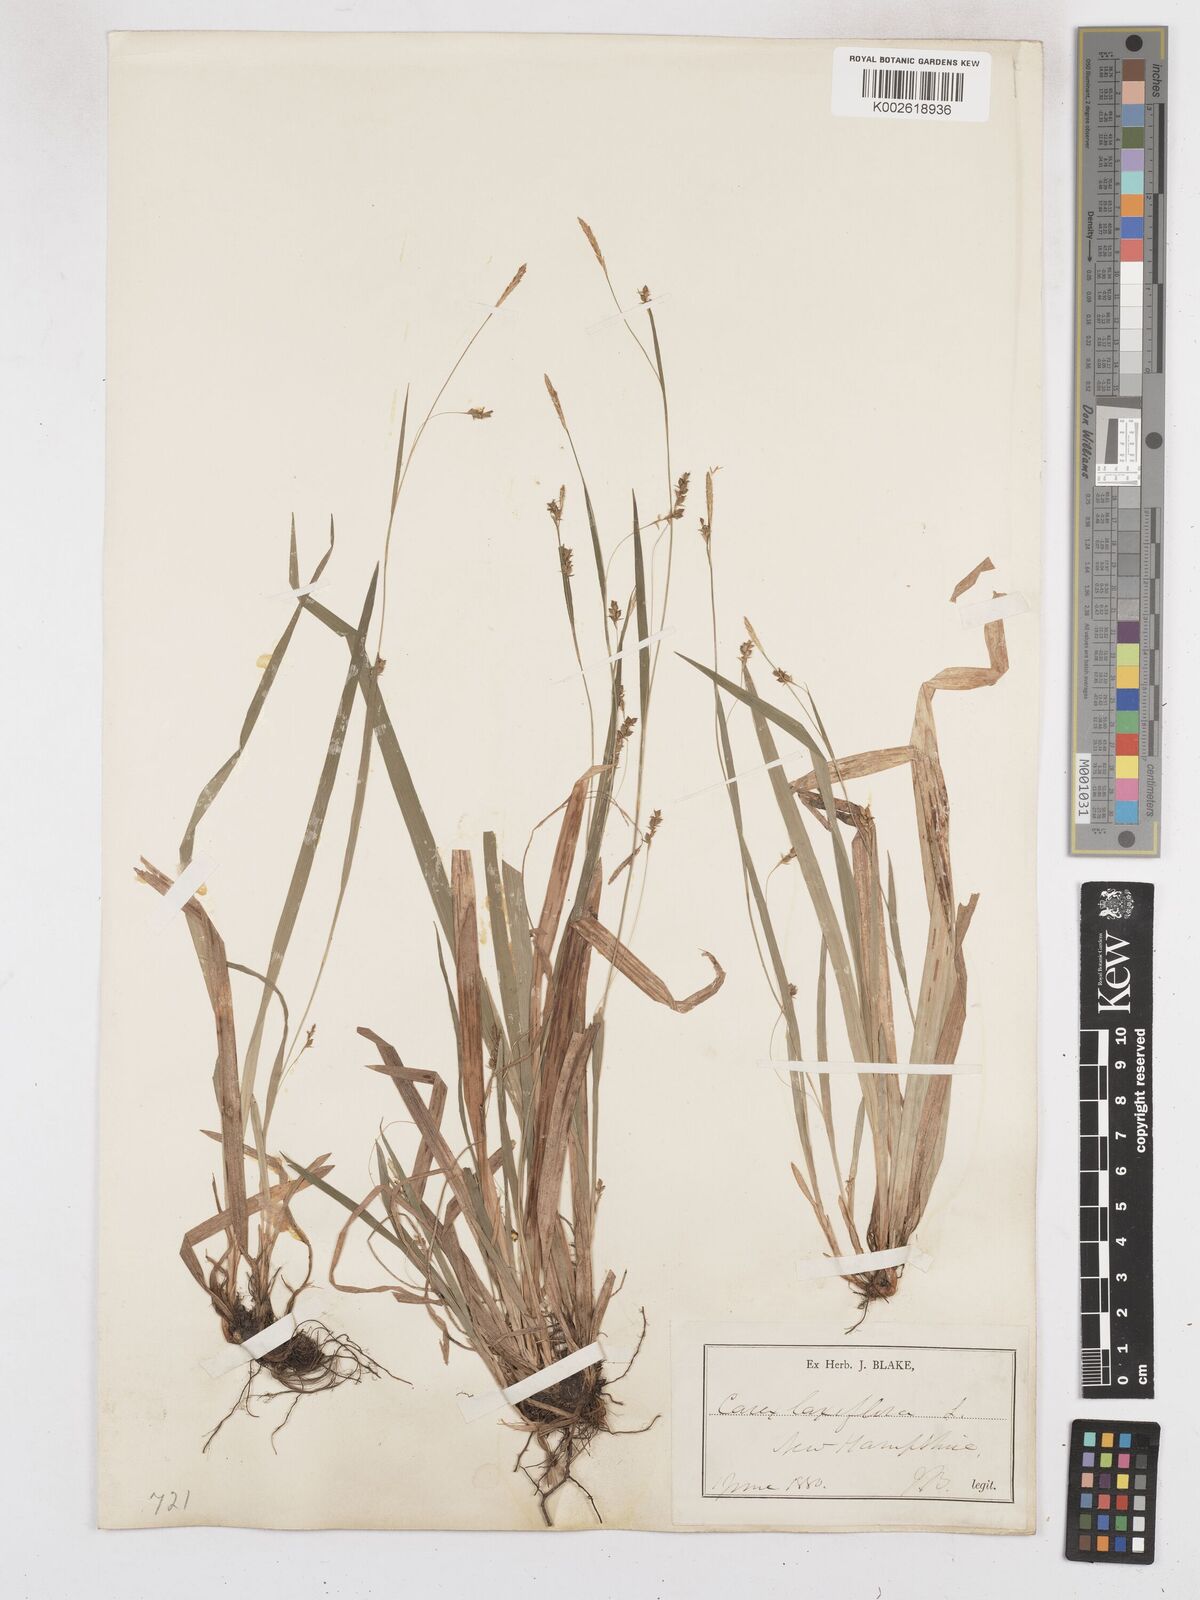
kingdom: Plantae
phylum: Tracheophyta
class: Liliopsida
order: Poales
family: Cyperaceae
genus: Carex
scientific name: Carex laxiflora
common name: Beech wood sedge
